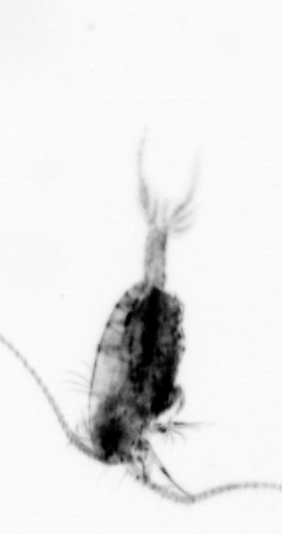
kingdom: Animalia
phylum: Arthropoda
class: Copepoda
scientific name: Copepoda
